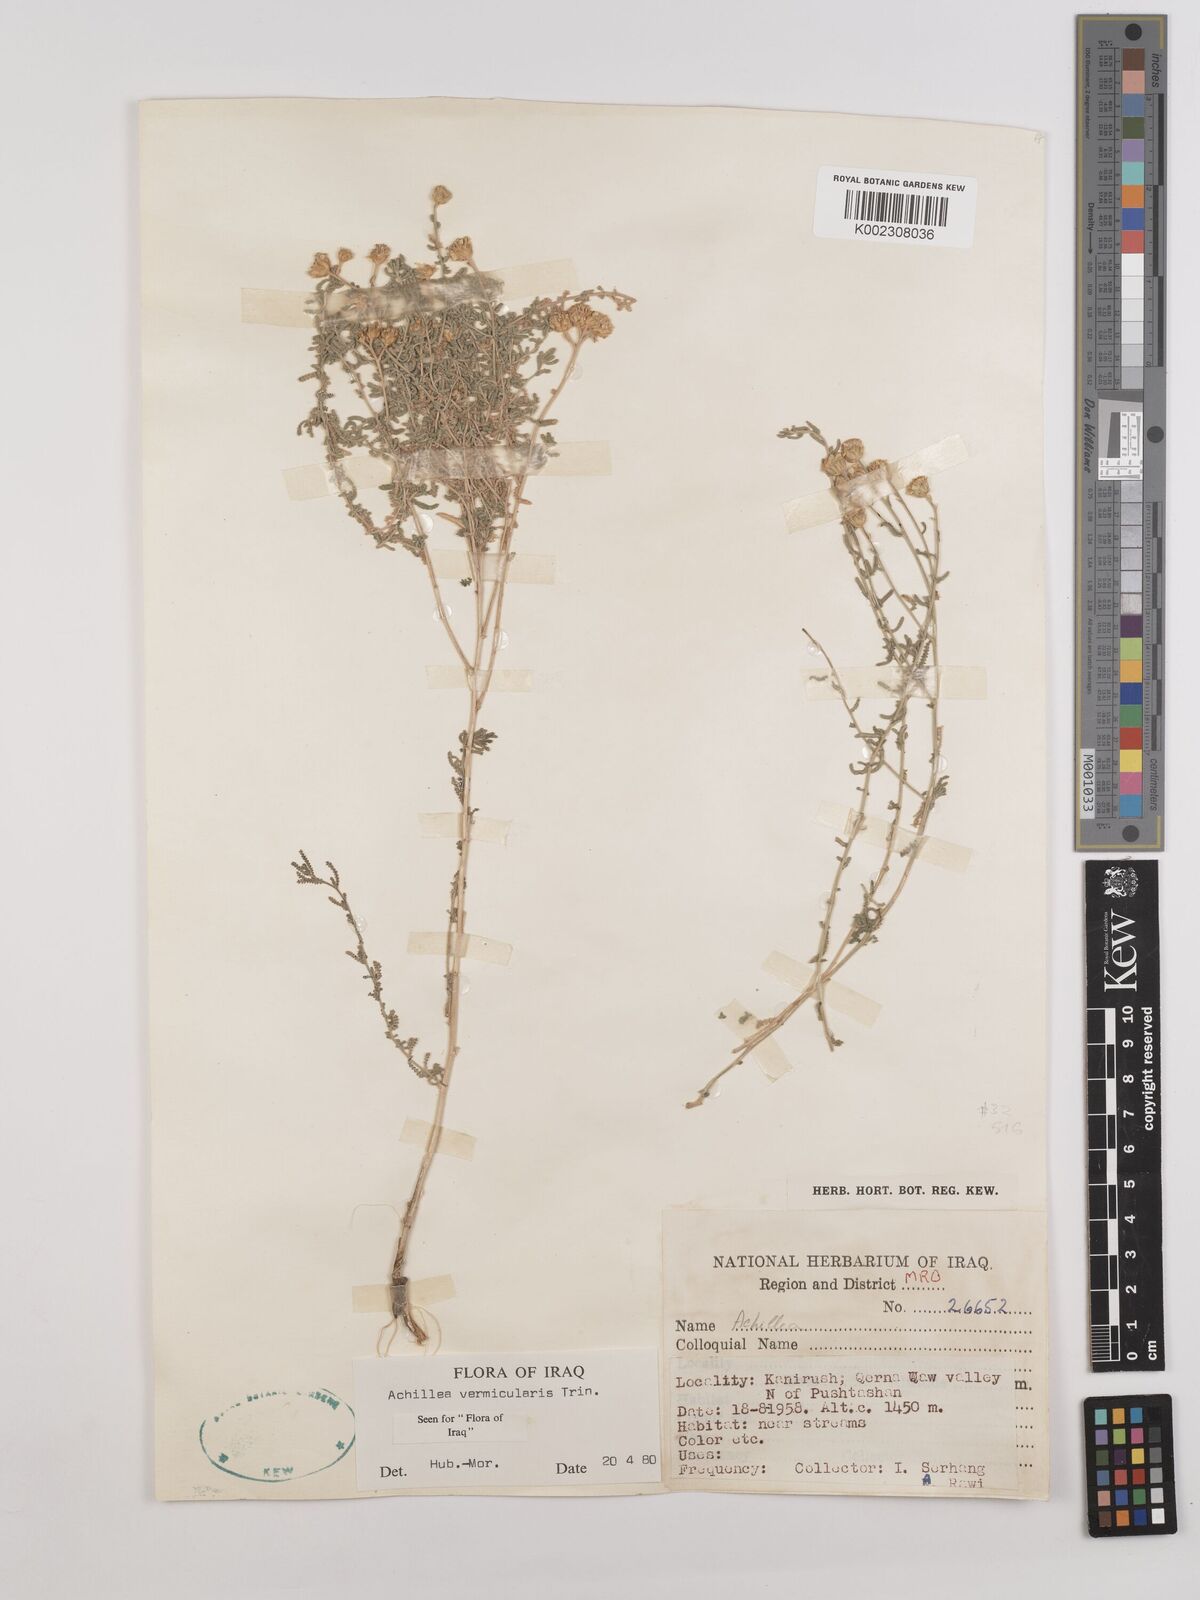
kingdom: Plantae
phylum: Tracheophyta
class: Magnoliopsida
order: Asterales
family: Asteraceae
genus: Achillea
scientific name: Achillea vermicularis
